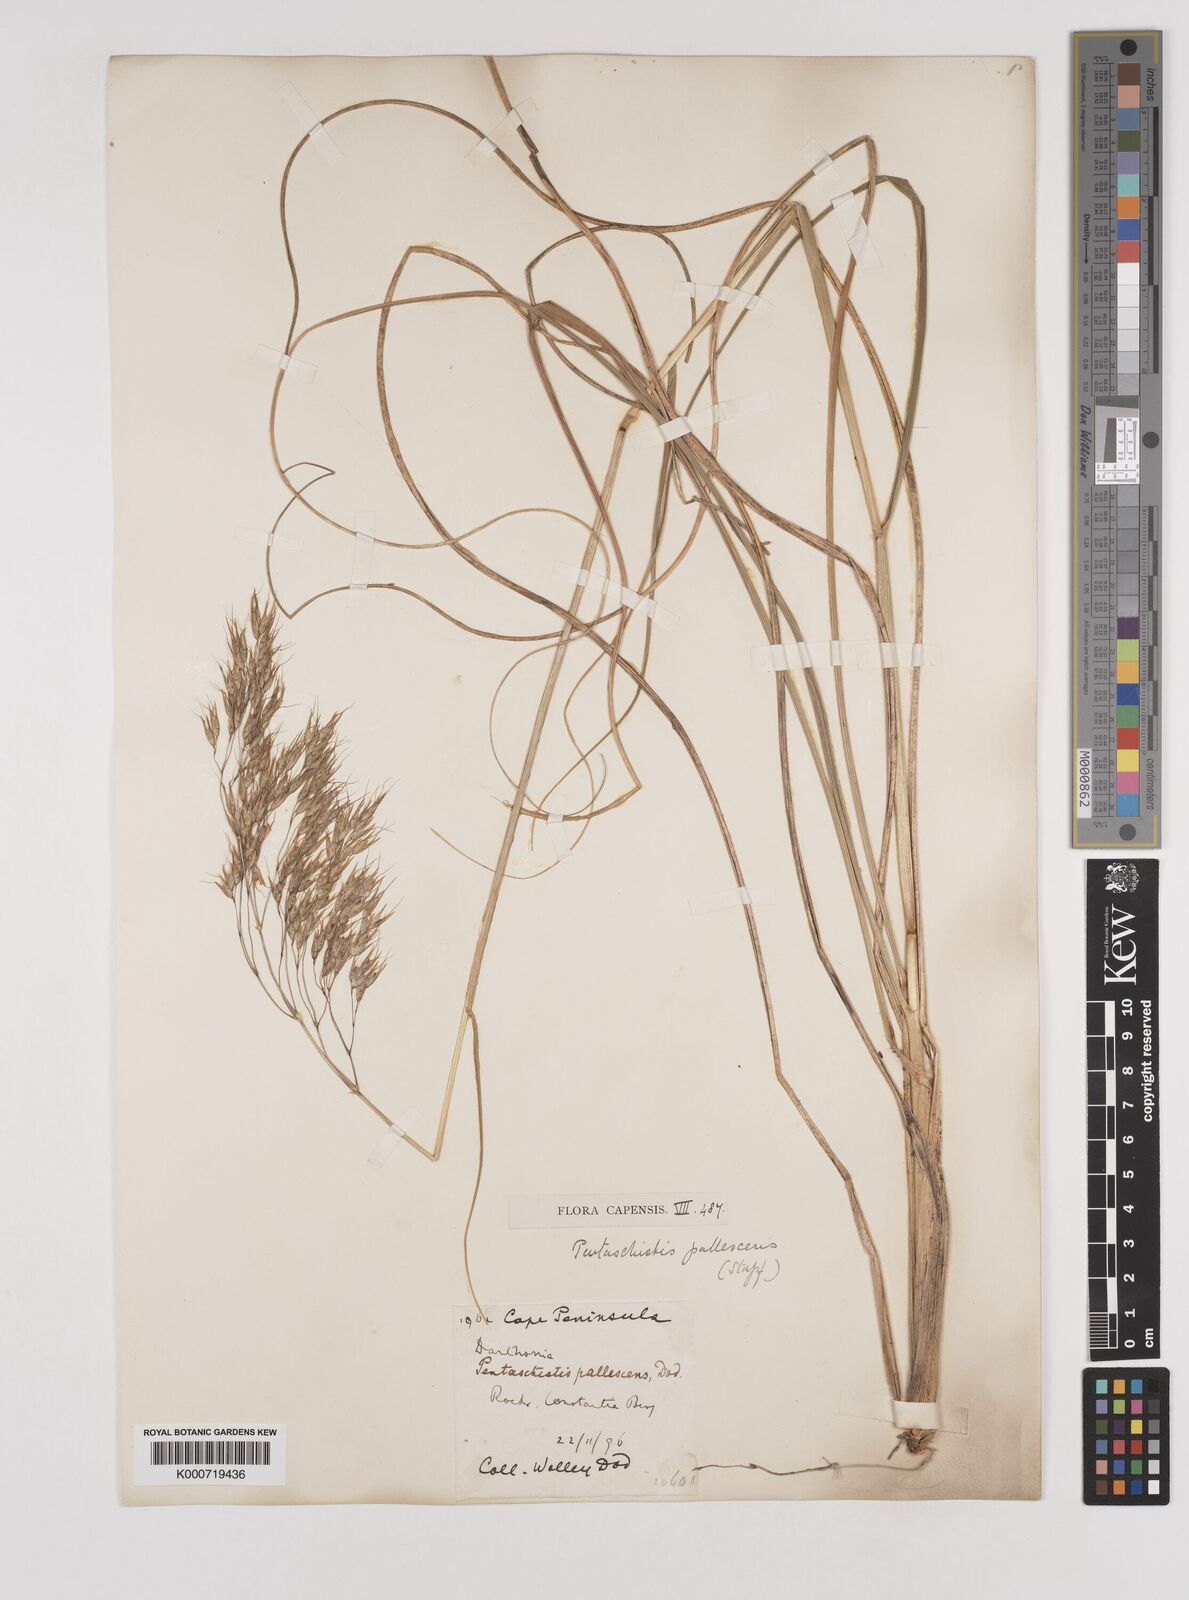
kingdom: Plantae
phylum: Tracheophyta
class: Liliopsida
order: Poales
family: Poaceae
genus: Pentameris
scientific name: Pentameris pallescens
